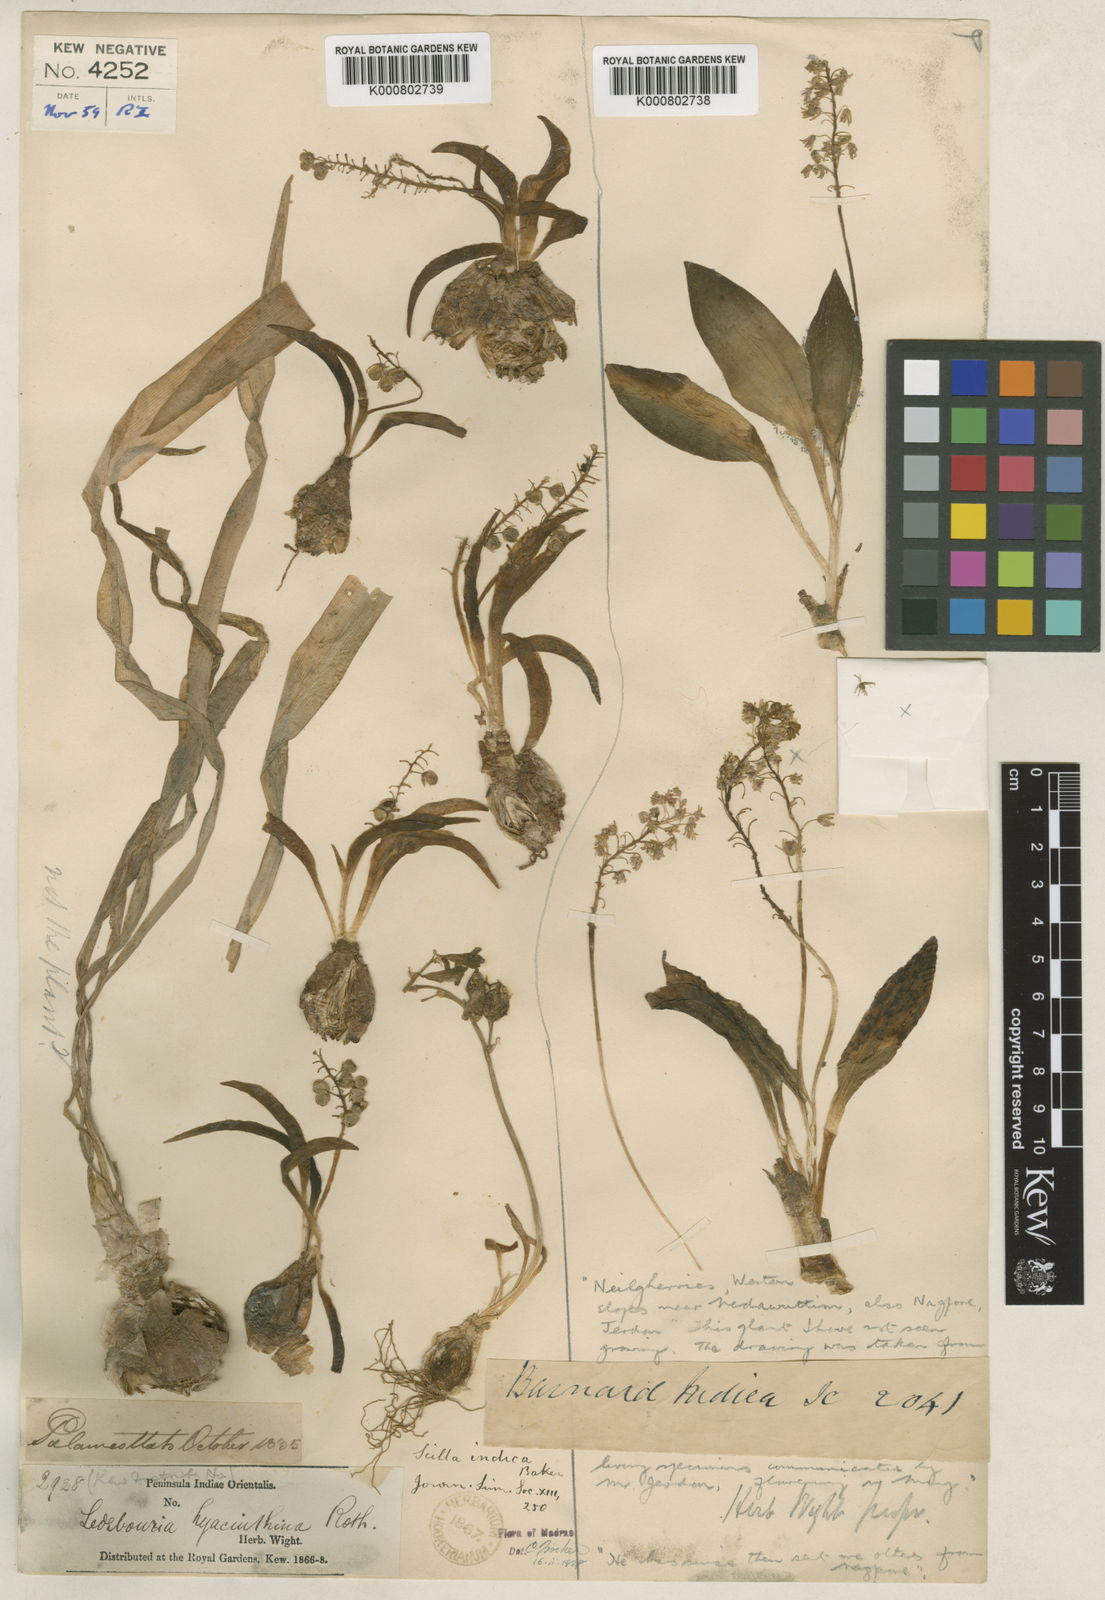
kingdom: Plantae
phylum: Tracheophyta
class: Liliopsida
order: Asparagales
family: Asparagaceae
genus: Ledebouria
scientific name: Ledebouria revoluta
